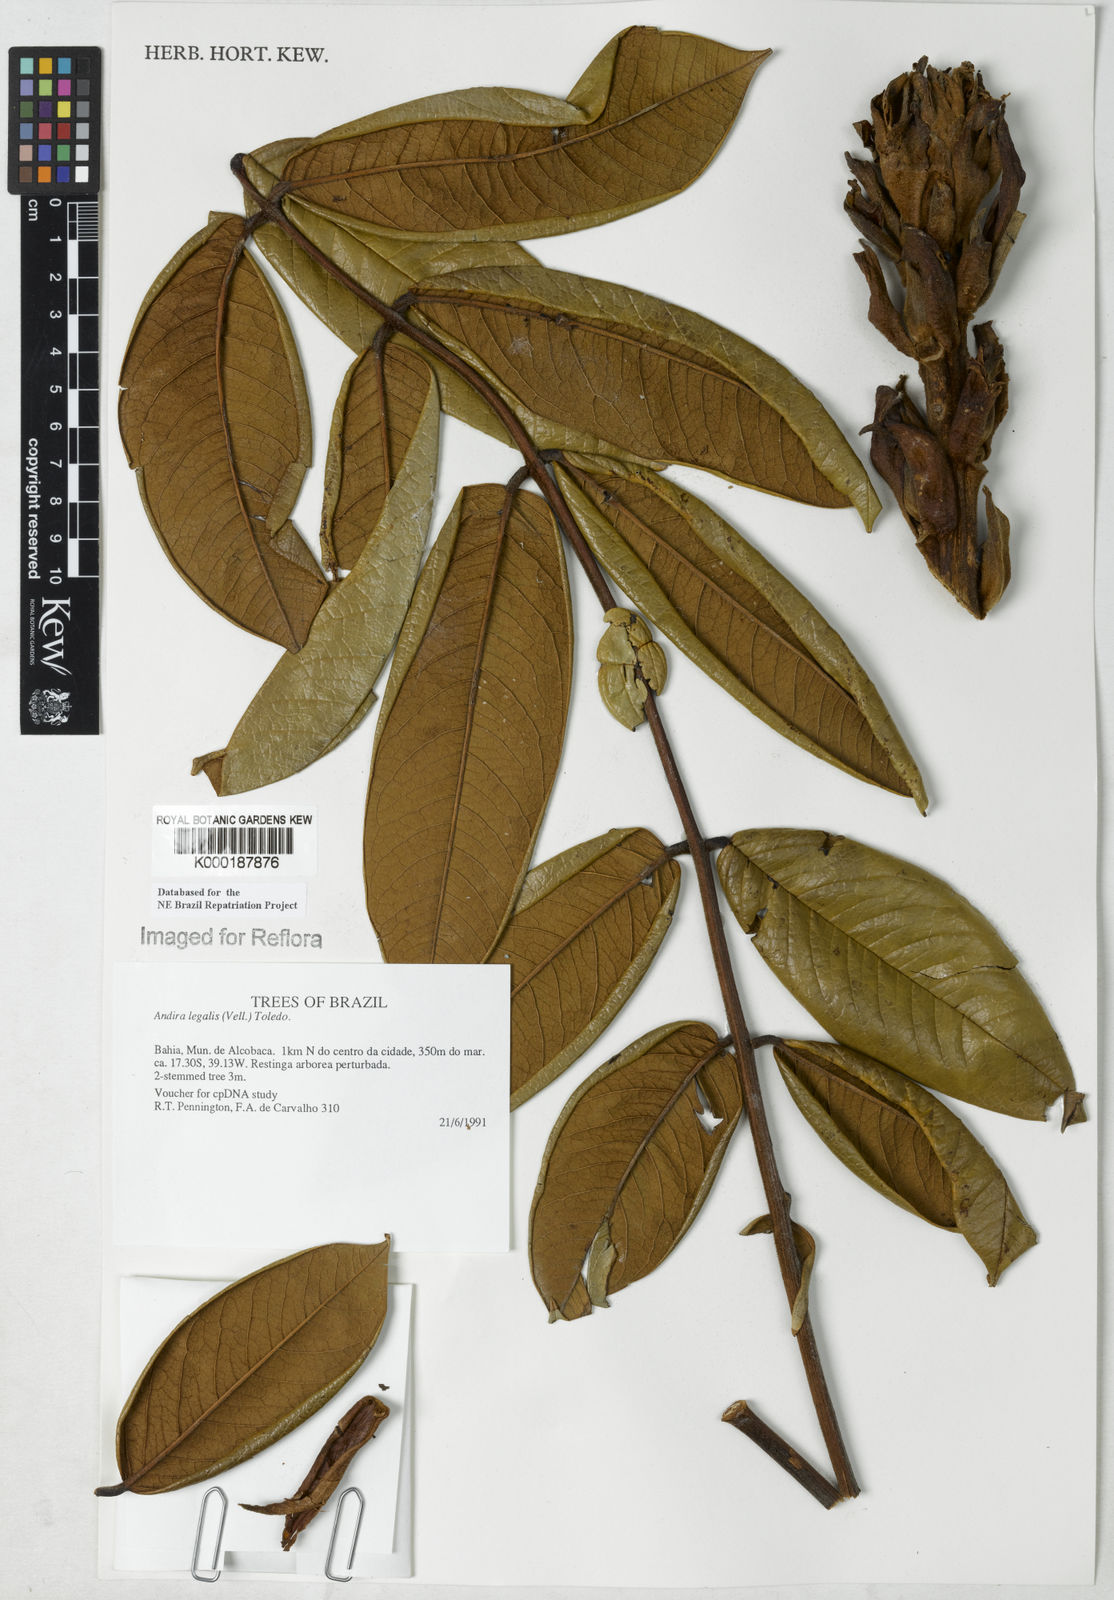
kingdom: Plantae
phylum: Tracheophyta
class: Magnoliopsida
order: Fabales
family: Fabaceae
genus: Andira
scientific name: Andira legalis
